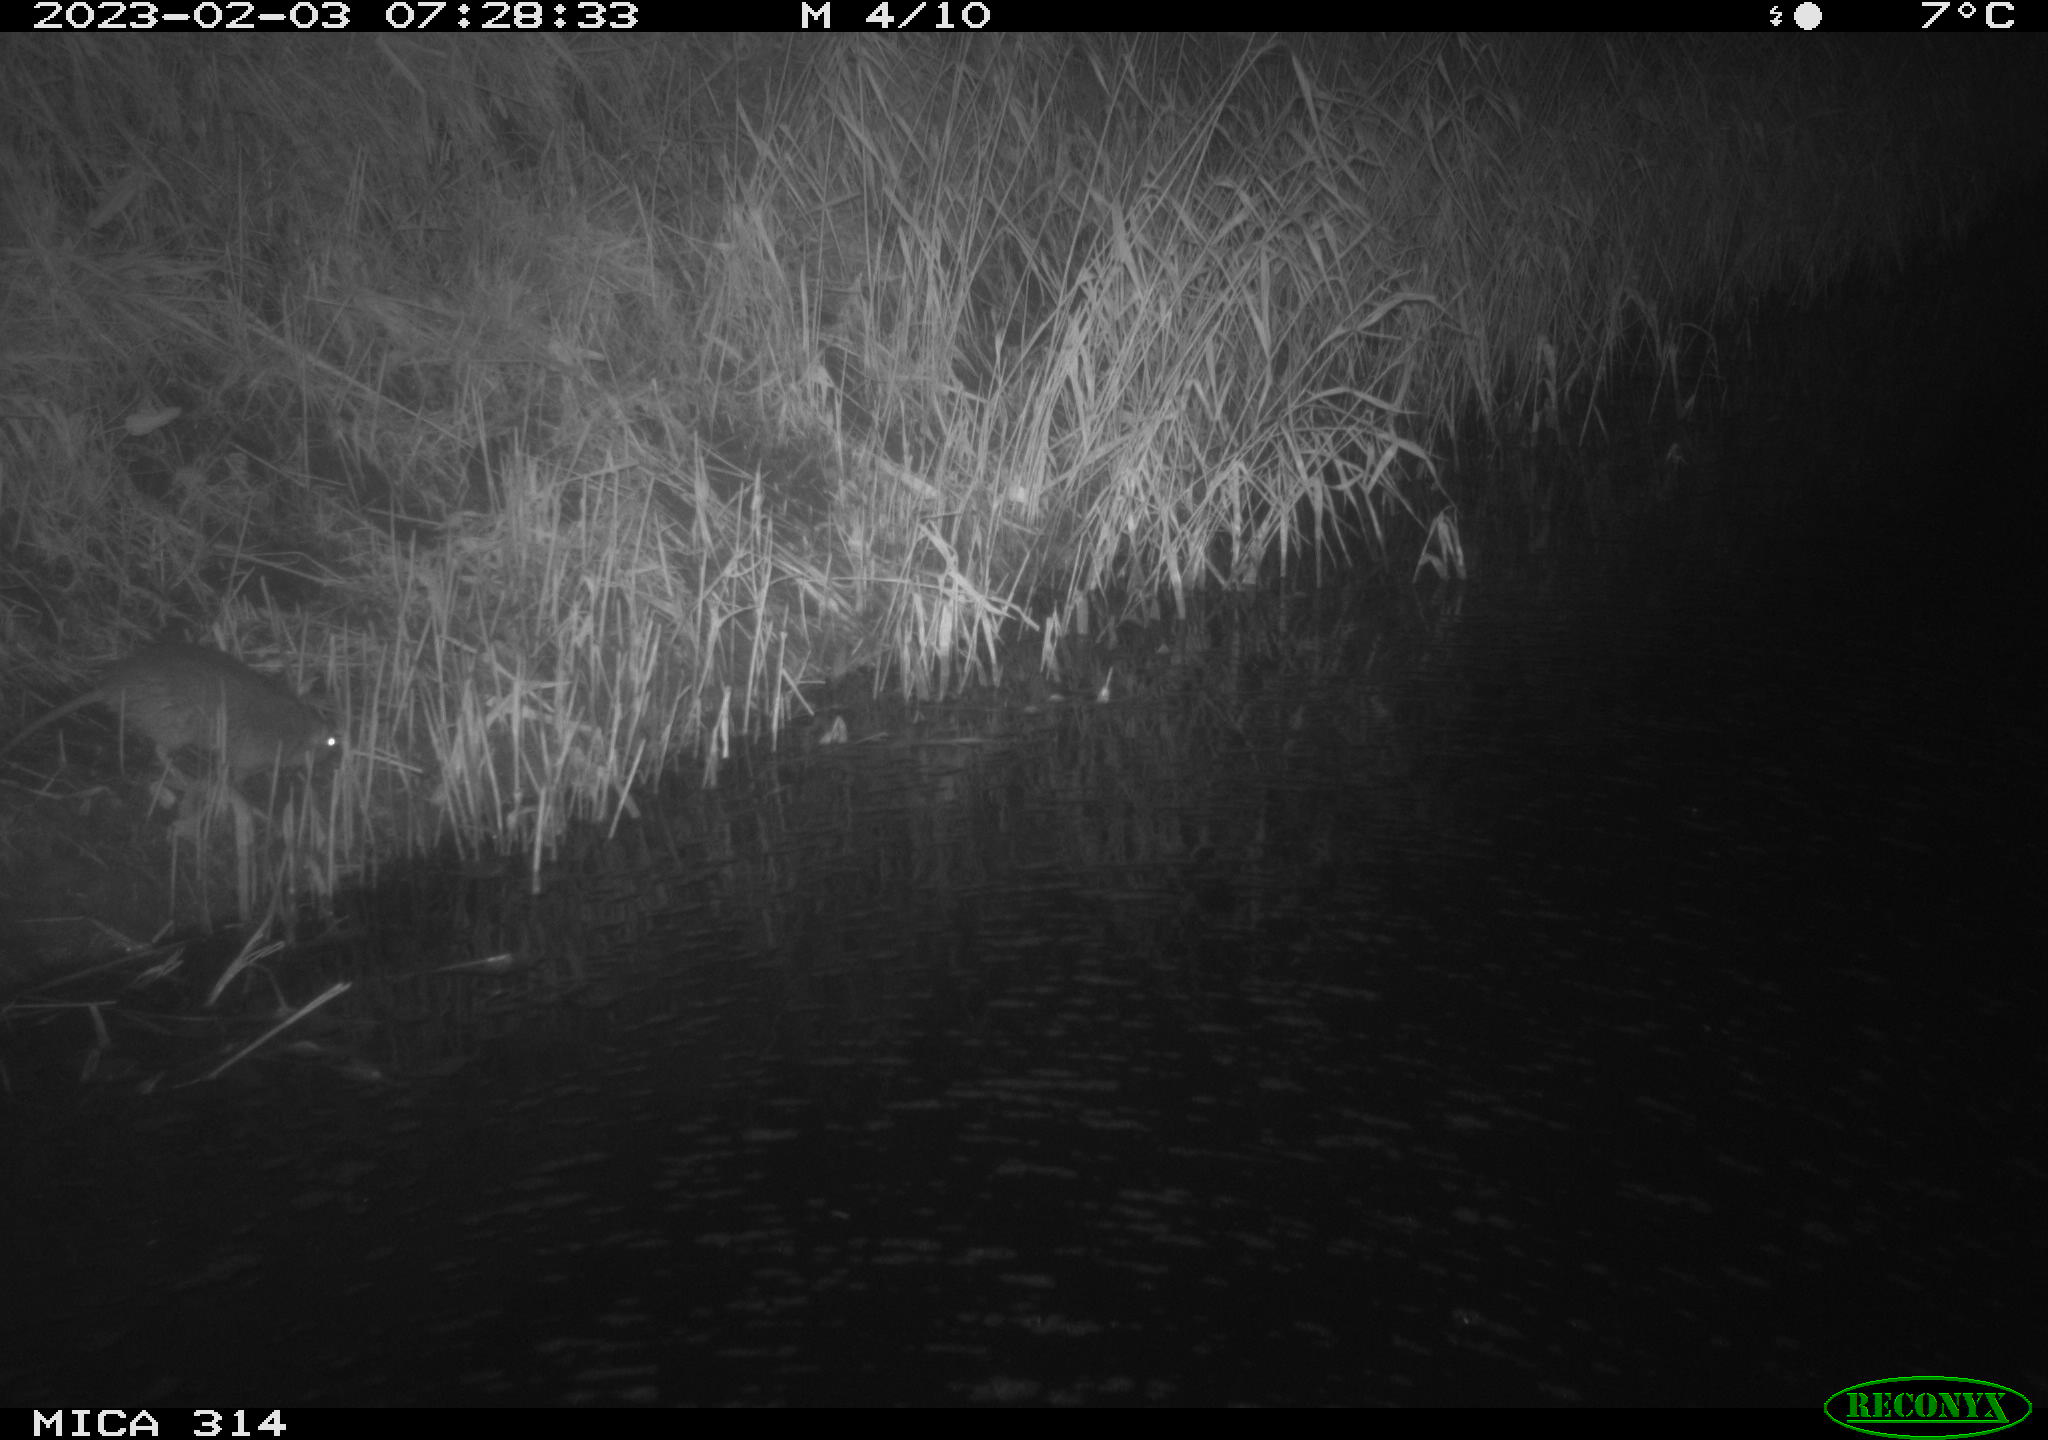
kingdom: Animalia
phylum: Chordata
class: Mammalia
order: Rodentia
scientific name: Rodentia
